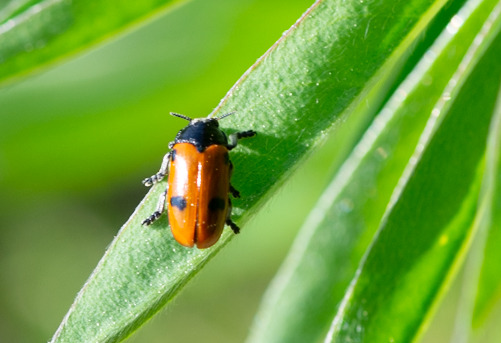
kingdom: Animalia
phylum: Arthropoda
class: Insecta
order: Coleoptera
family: Chrysomelidae
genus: Clytra
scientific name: Clytra quadripunctata
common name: Myrebladbille
